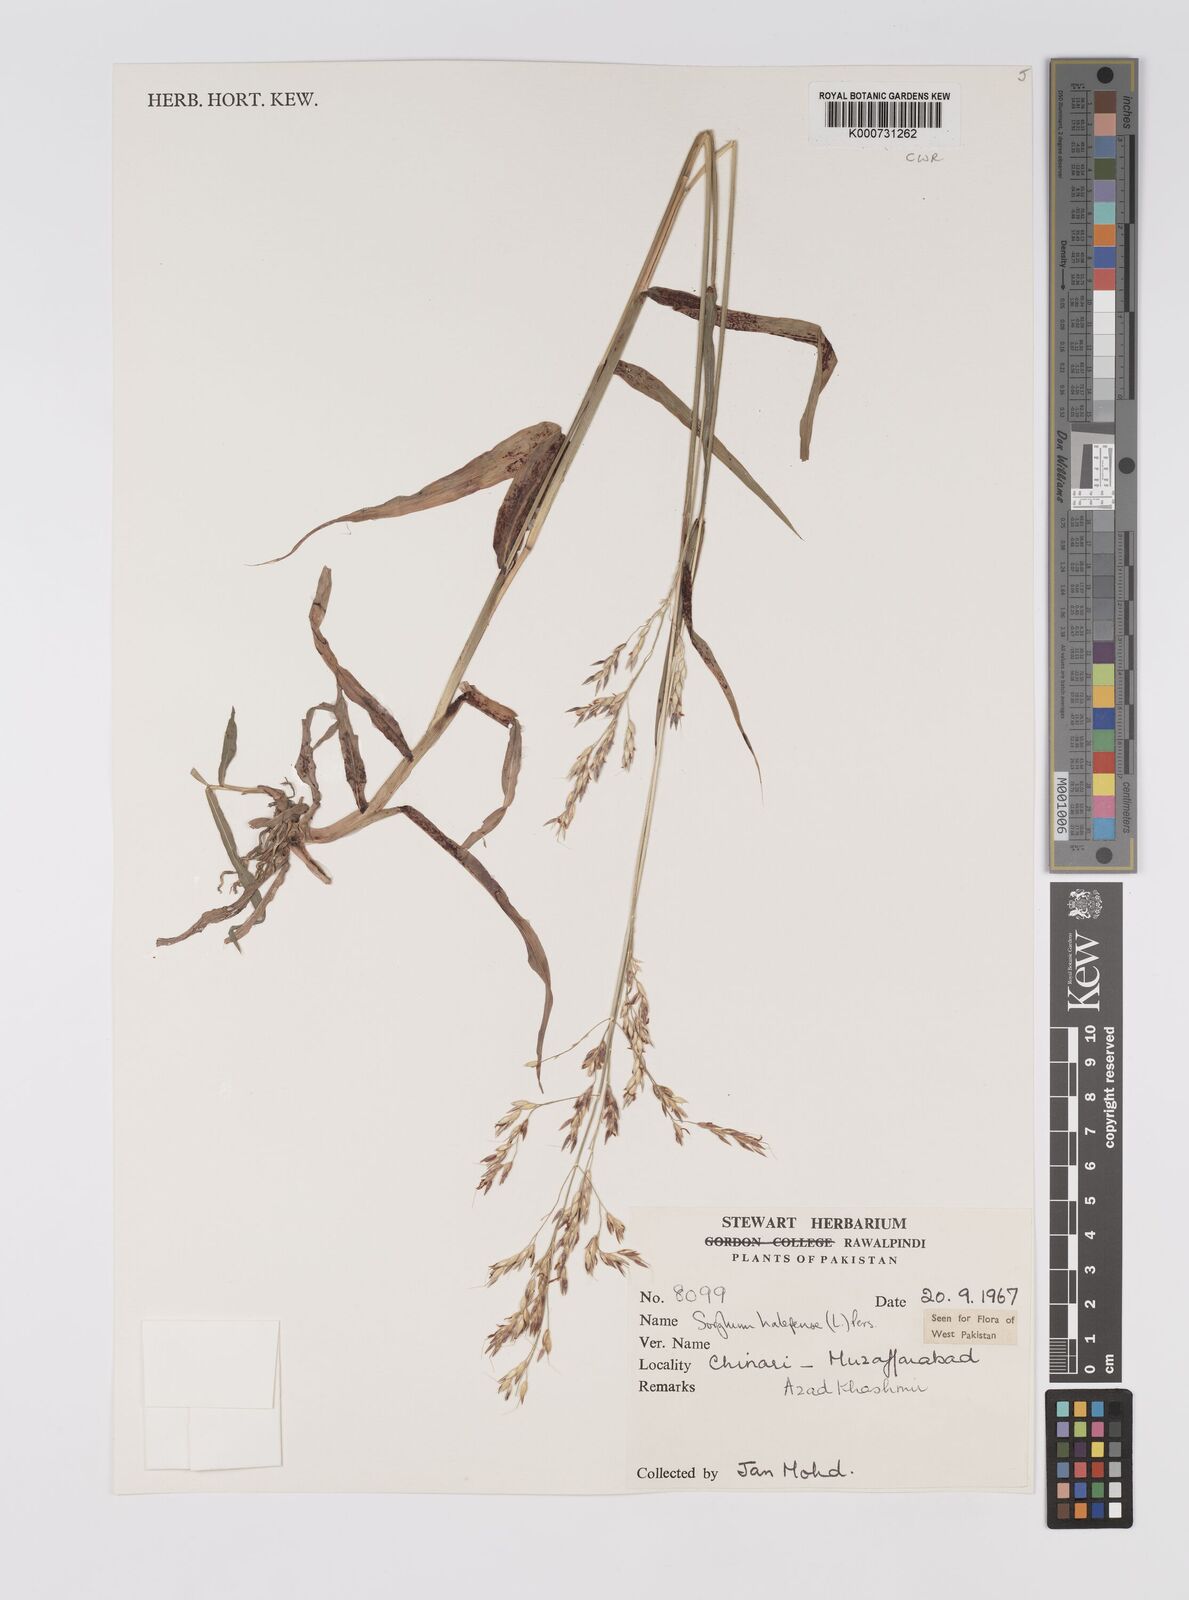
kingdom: Plantae
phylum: Tracheophyta
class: Liliopsida
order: Poales
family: Poaceae
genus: Sorghum
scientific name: Sorghum halepense
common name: Johnson-grass
